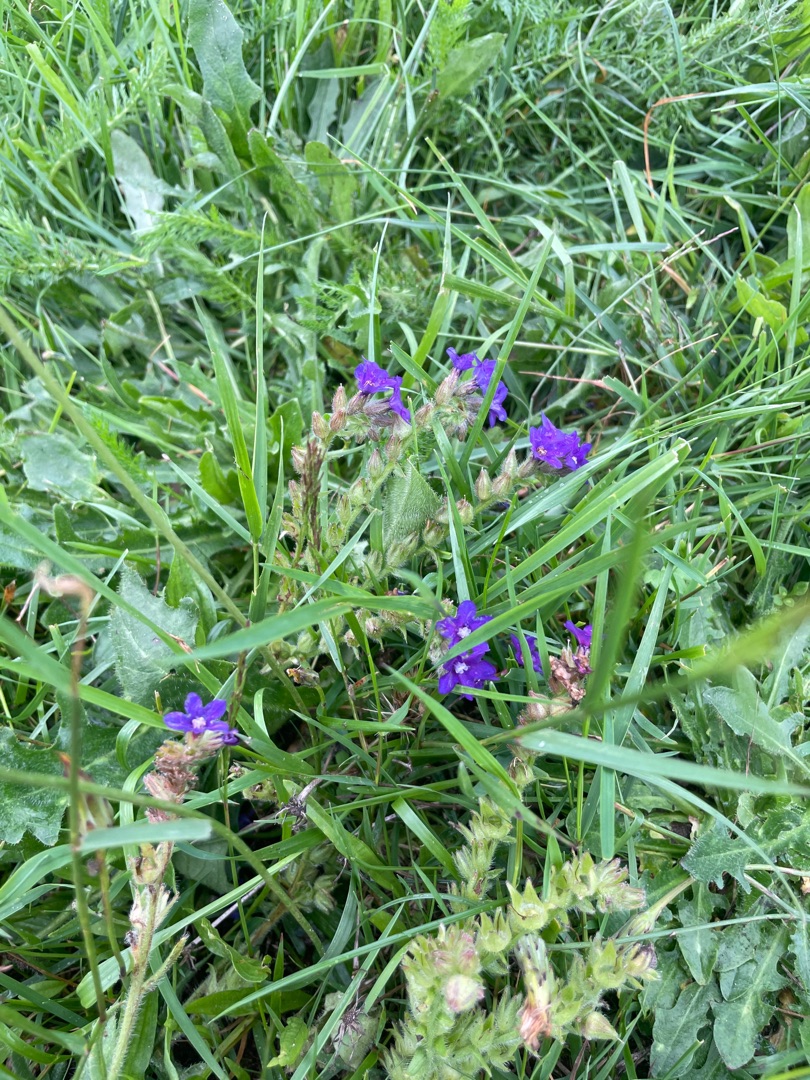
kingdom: Plantae
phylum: Tracheophyta
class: Magnoliopsida
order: Boraginales
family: Boraginaceae
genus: Anchusa
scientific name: Anchusa officinalis
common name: Læge-oksetunge
